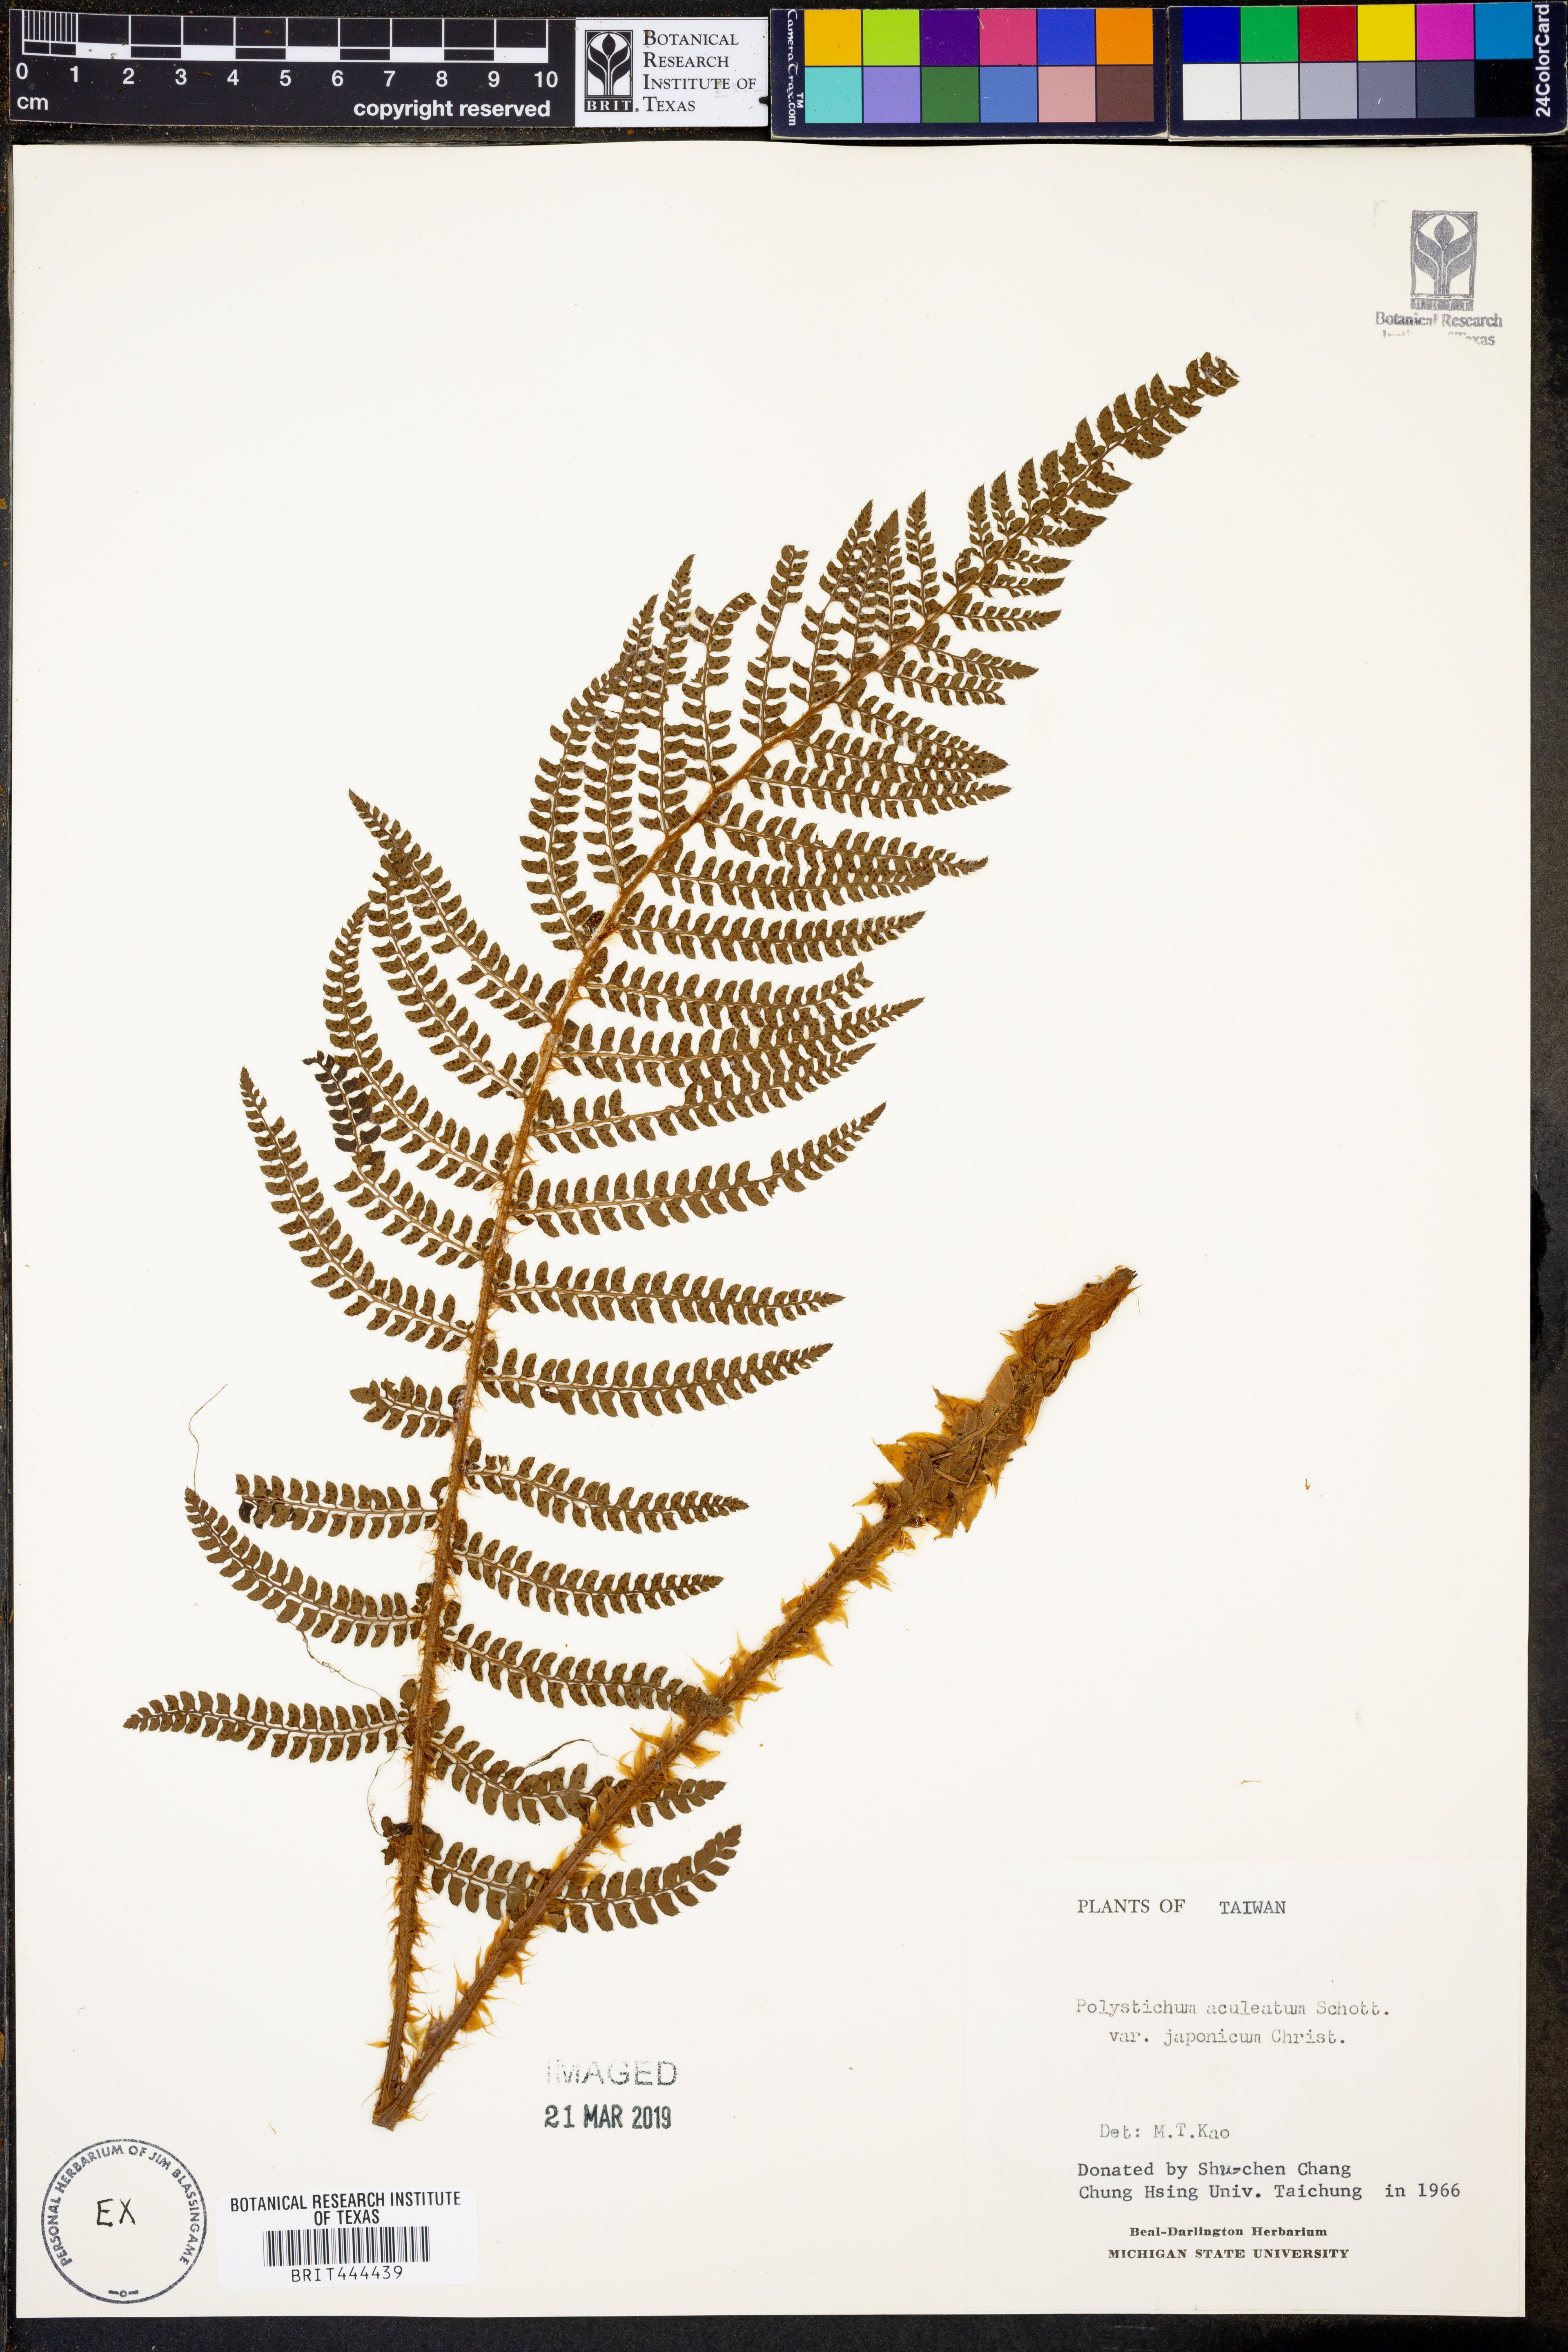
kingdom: Plantae
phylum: Tracheophyta
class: Polypodiopsida
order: Polypodiales
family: Dryopteridaceae
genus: Polystichum
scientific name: Polystichum aculeatum
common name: Hard shield-fern
